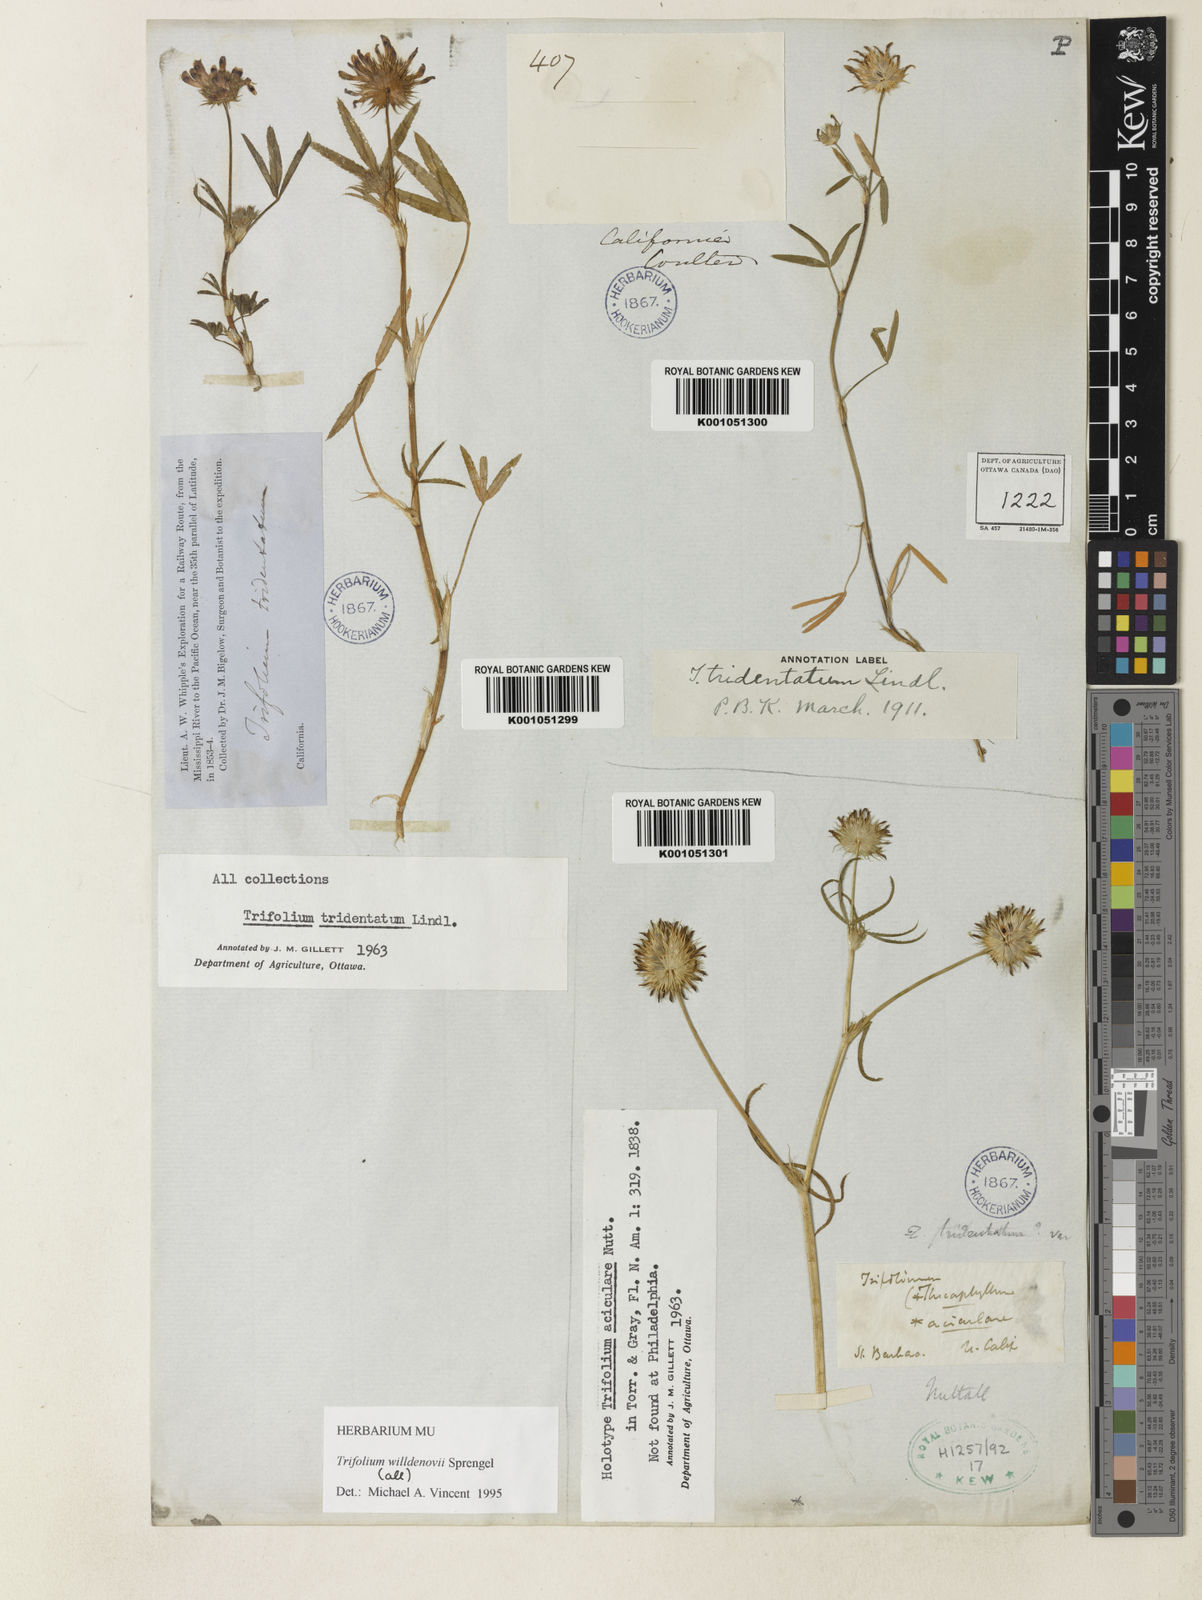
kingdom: Plantae
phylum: Tracheophyta
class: Magnoliopsida
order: Fabales
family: Fabaceae
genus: Trifolium
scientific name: Trifolium willdenovii
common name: Tomcat clover
